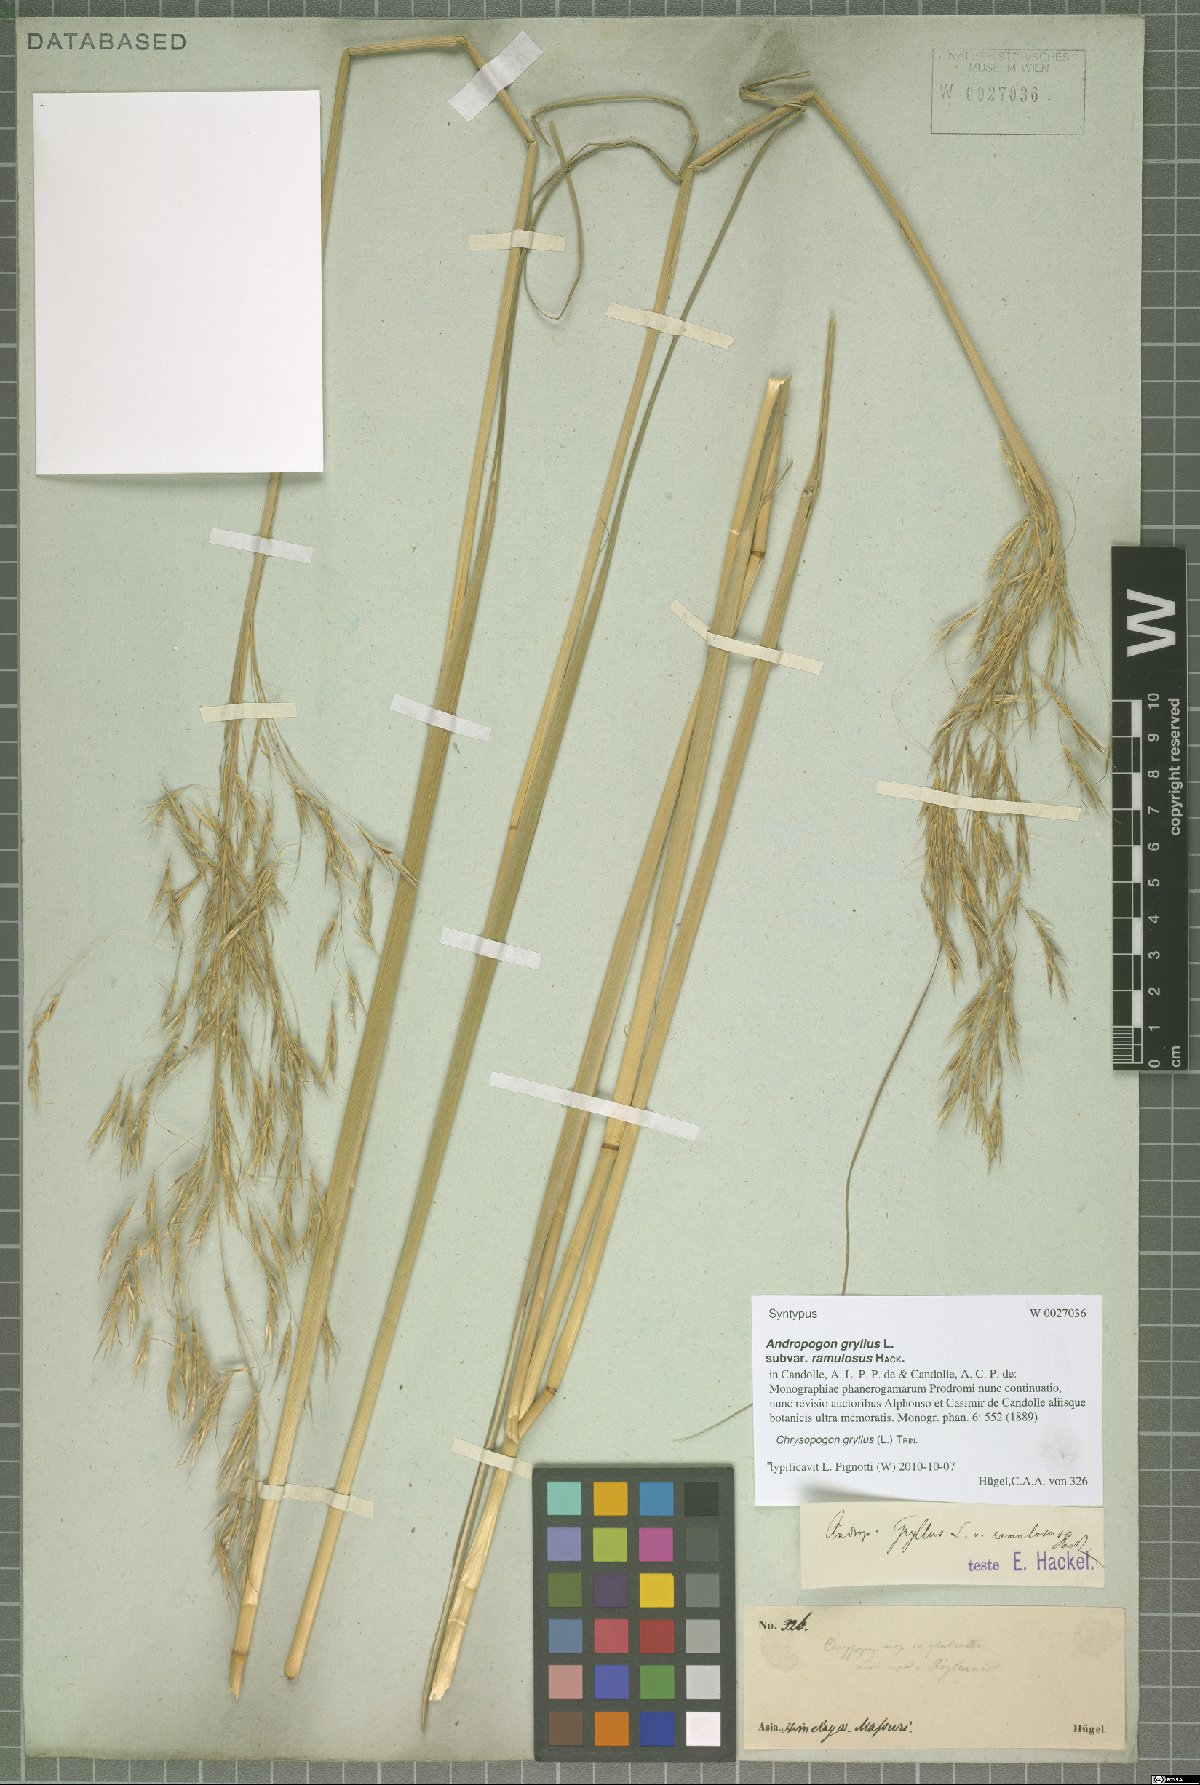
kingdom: Plantae
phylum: Tracheophyta
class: Liliopsida
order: Poales
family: Poaceae
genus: Chrysopogon
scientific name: Chrysopogon gryllus
